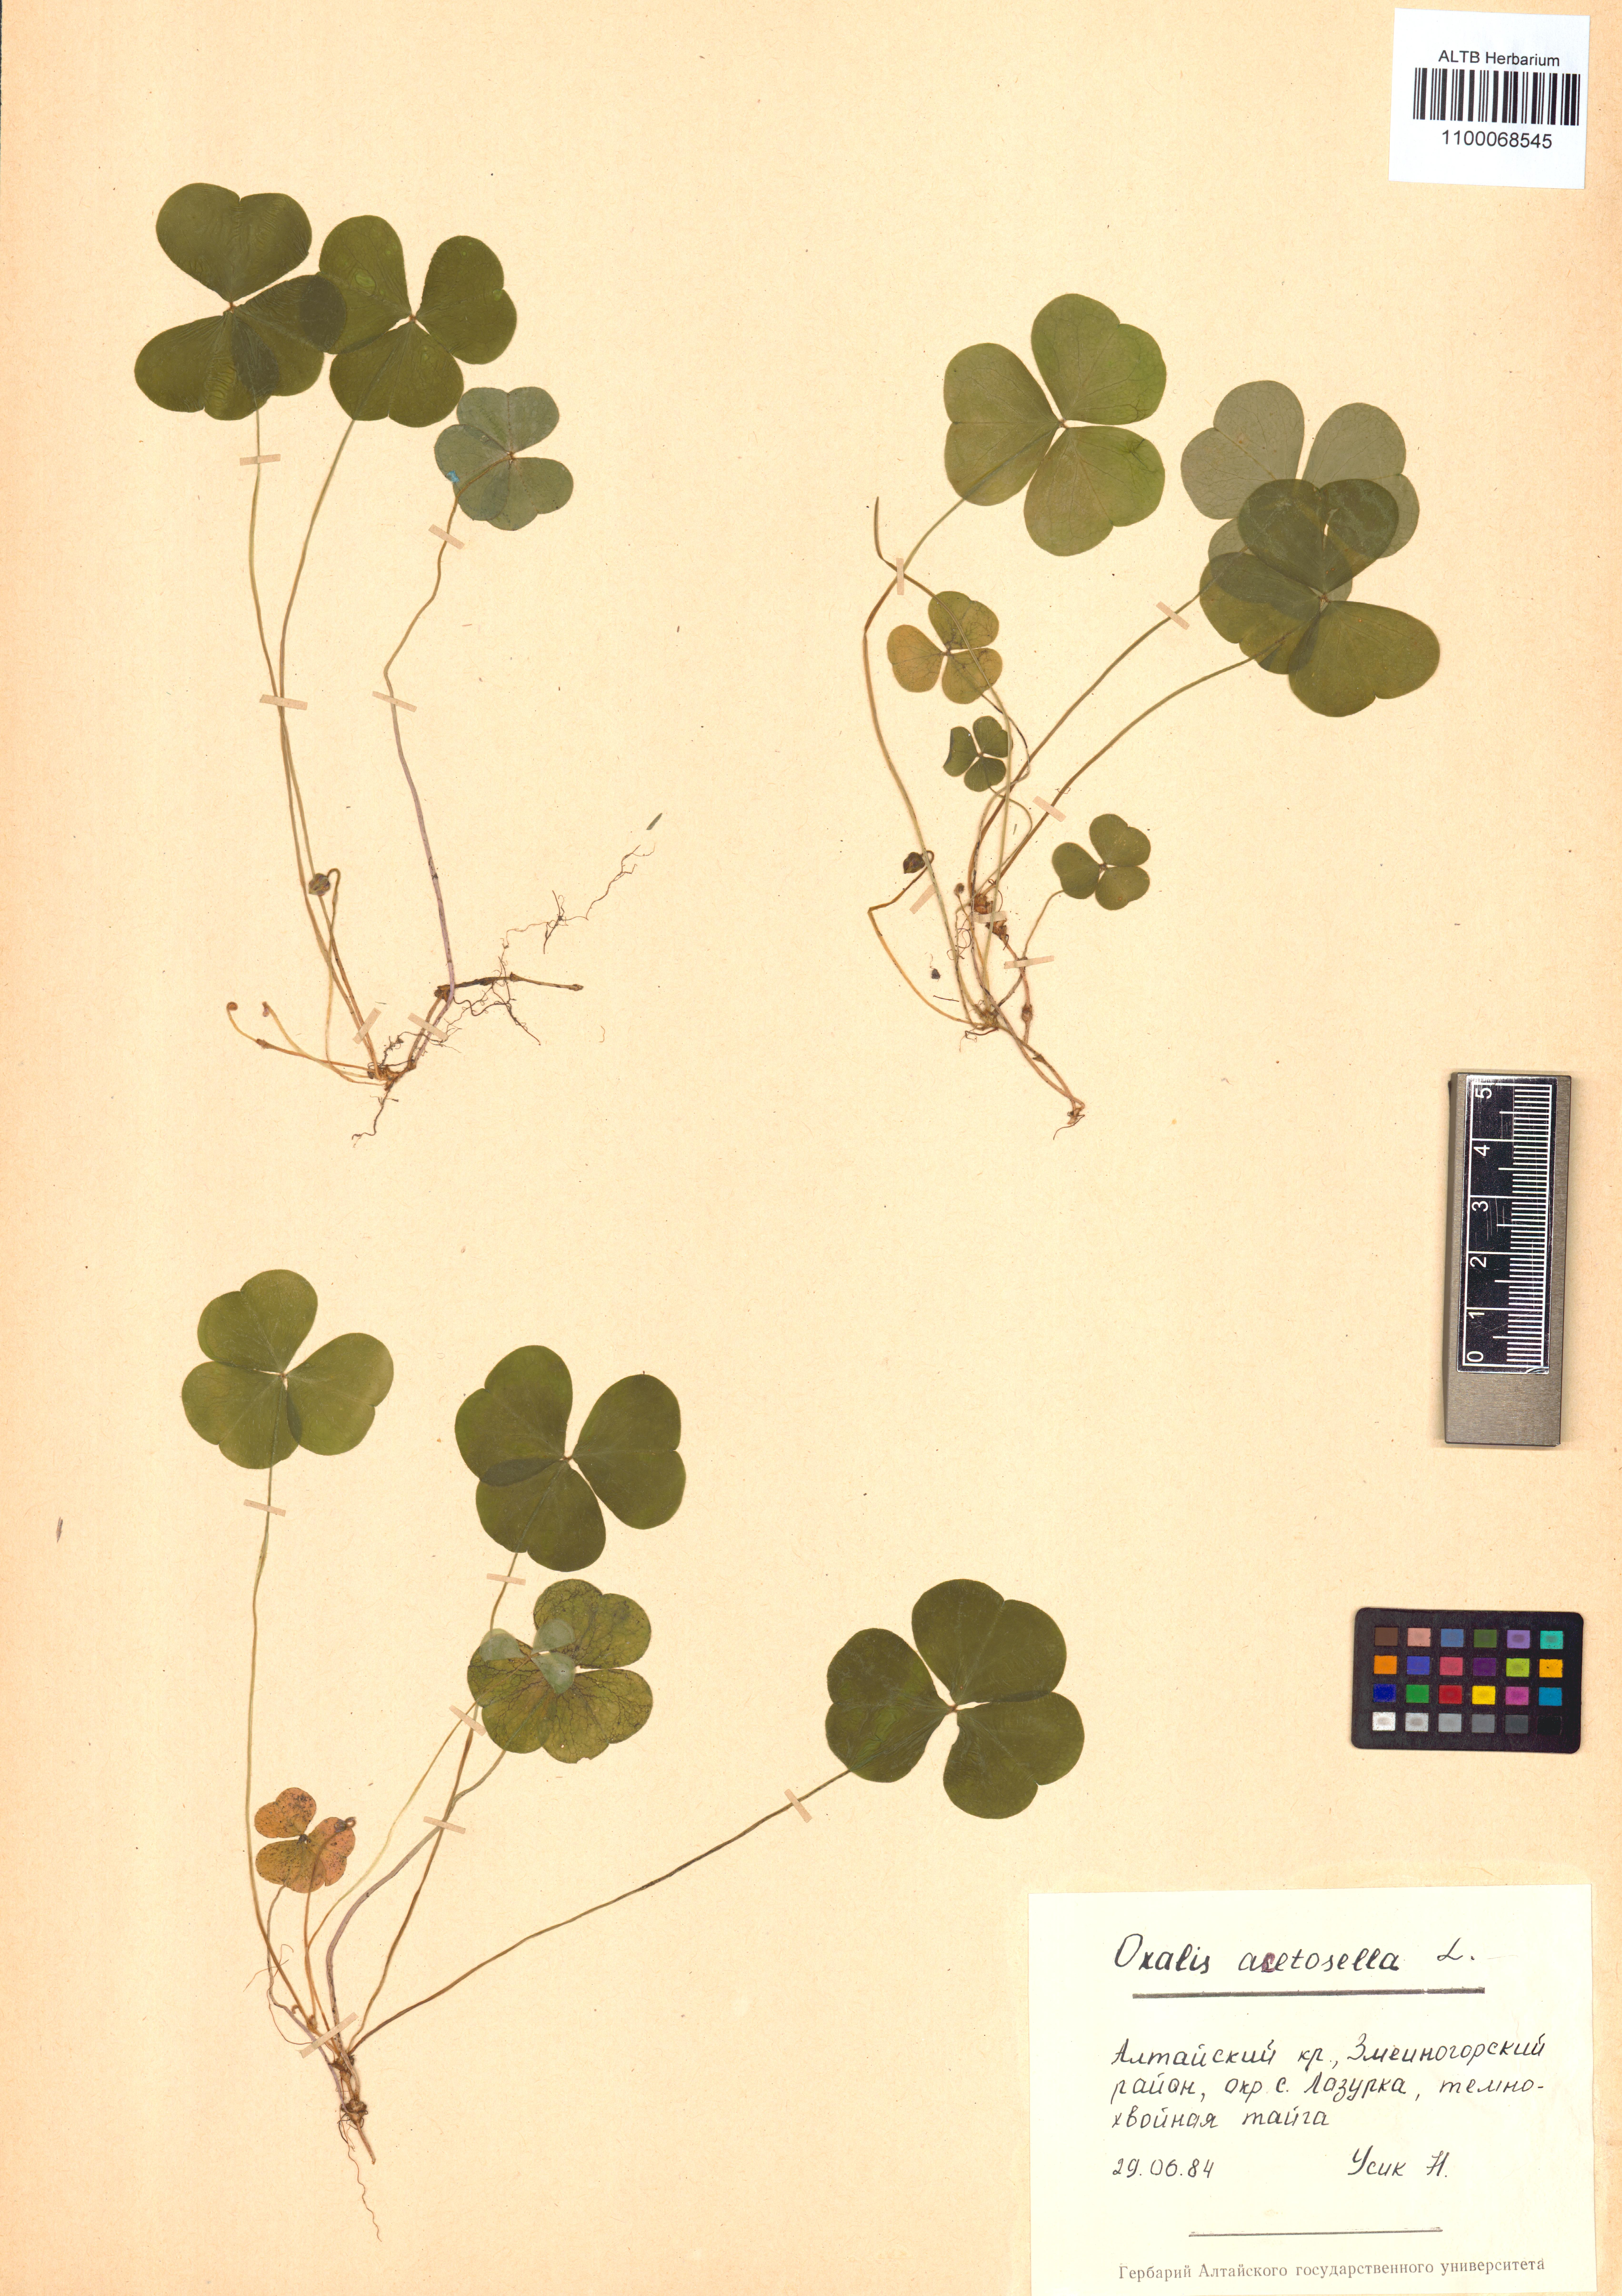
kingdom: Plantae
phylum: Tracheophyta
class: Magnoliopsida
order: Oxalidales
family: Oxalidaceae
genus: Oxalis
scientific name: Oxalis acetosella
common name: Wood-sorrel
